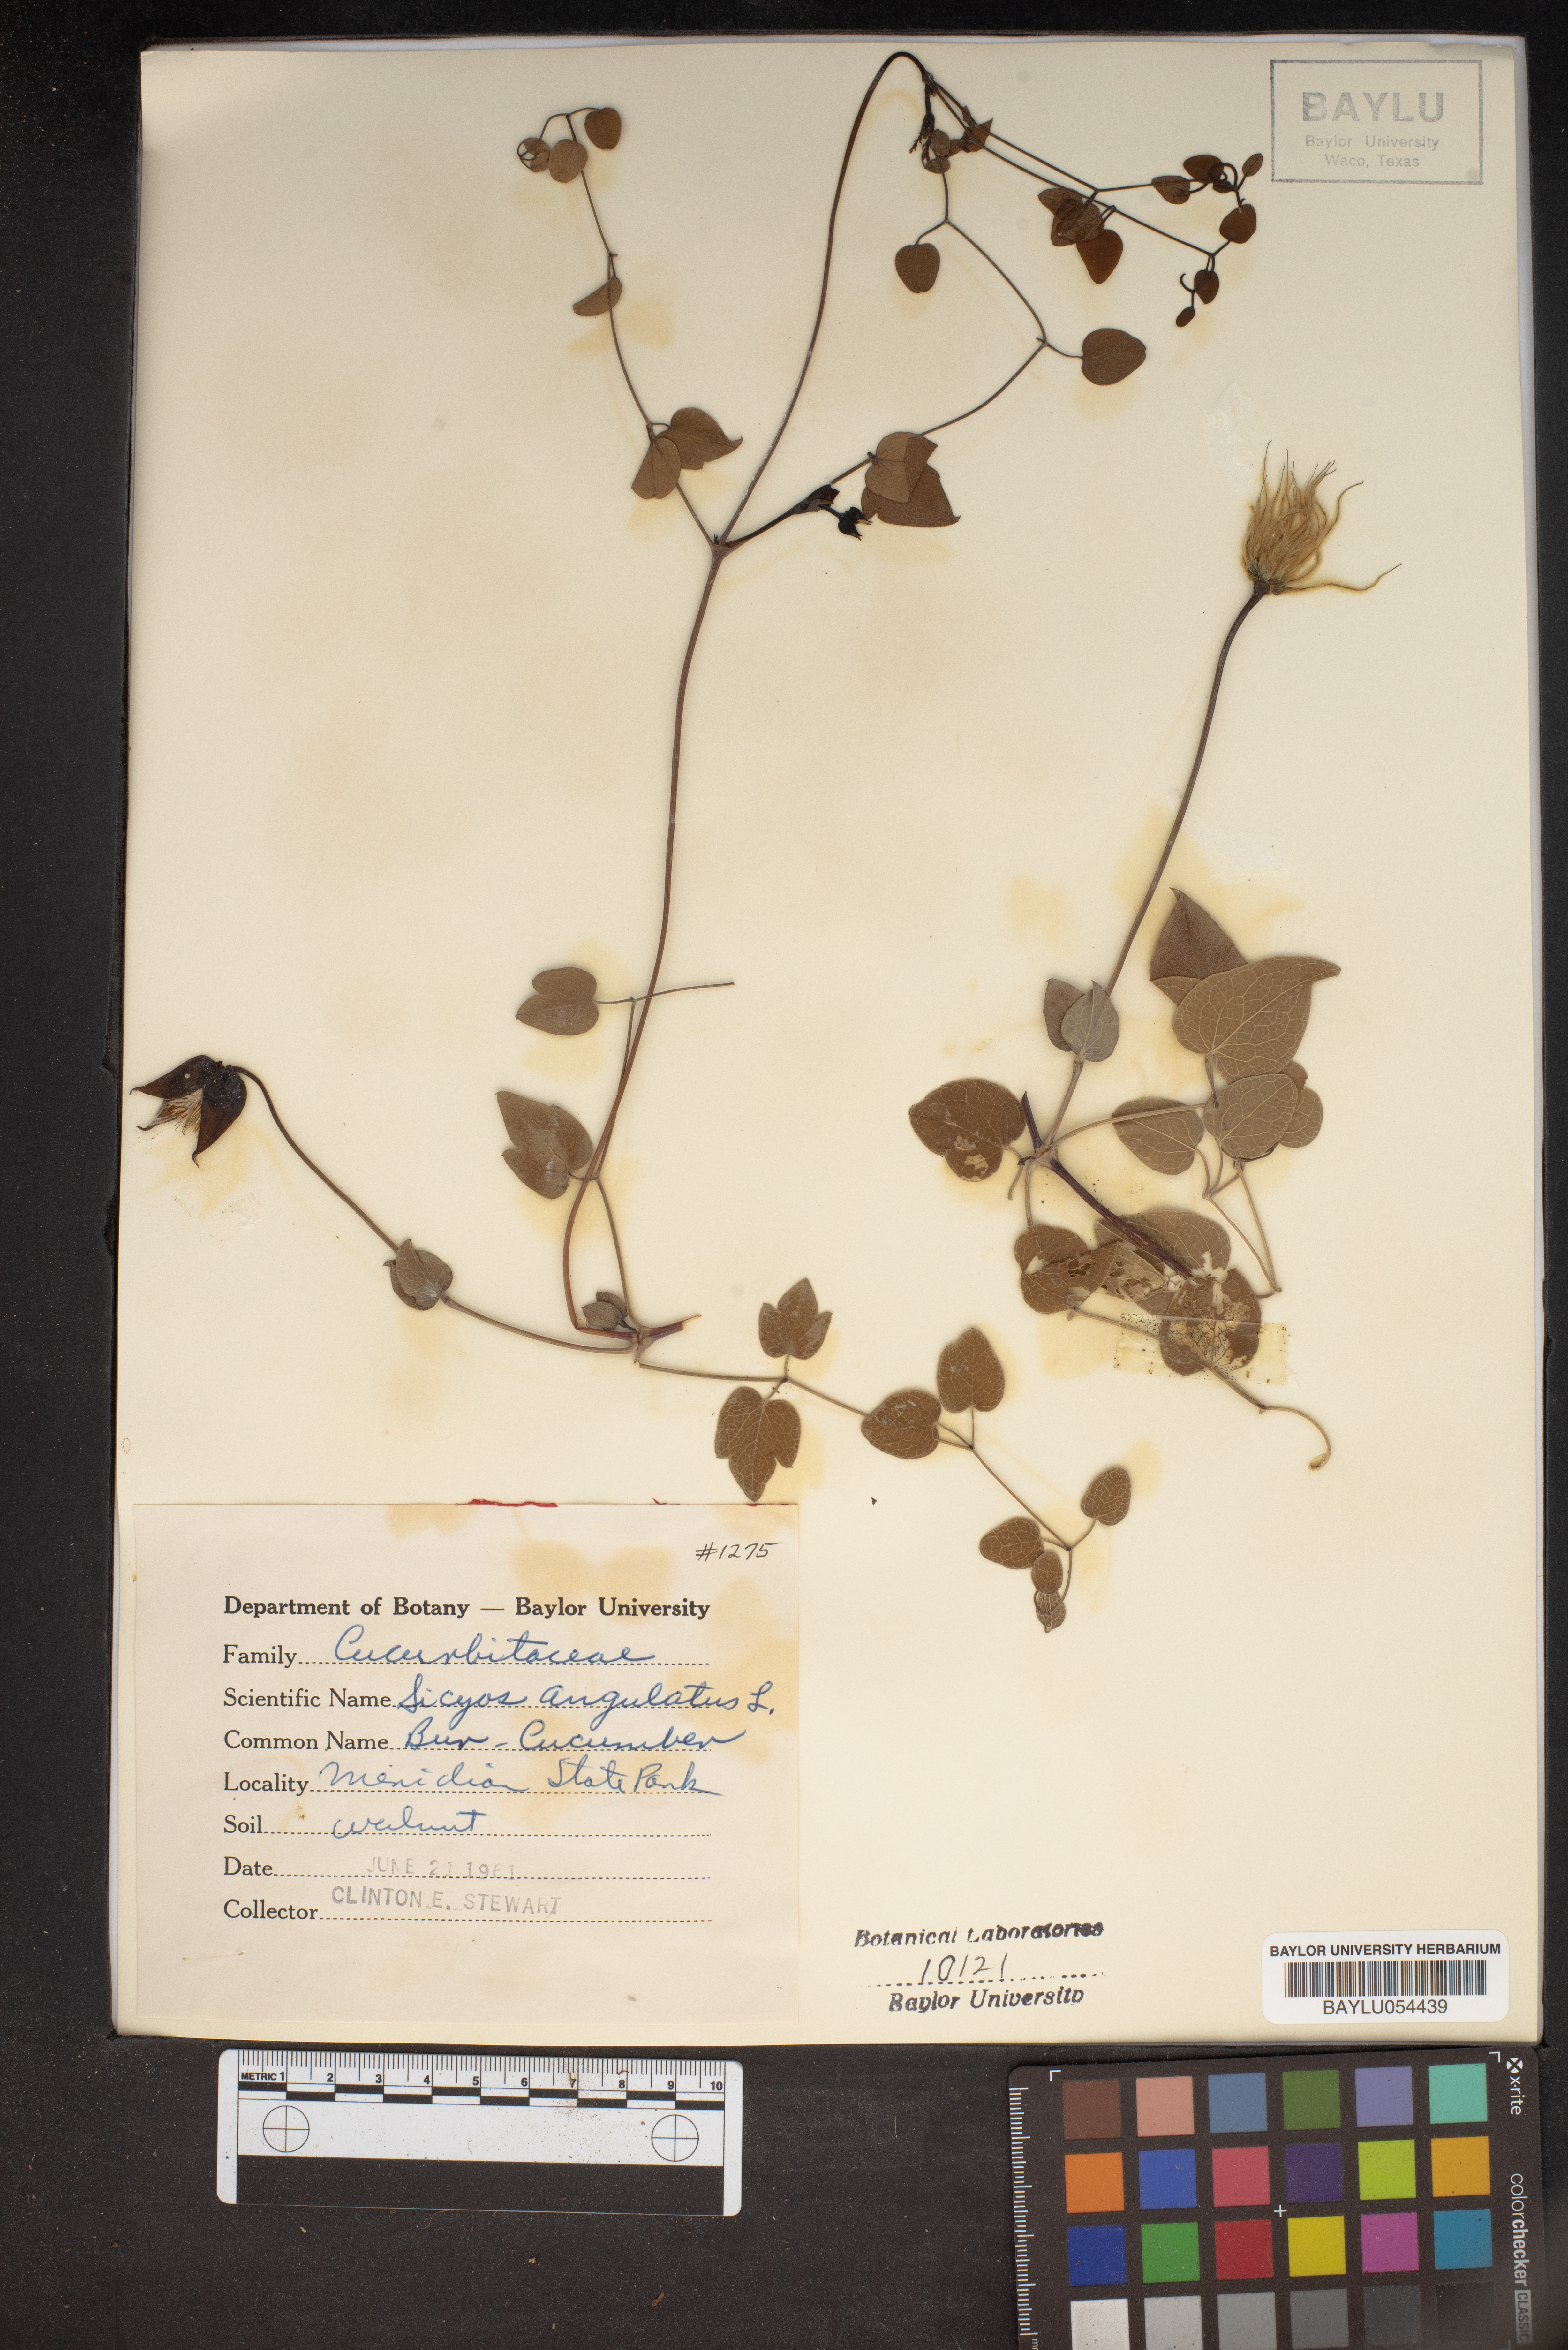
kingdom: Plantae
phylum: Tracheophyta
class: Magnoliopsida
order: Cucurbitales
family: Cucurbitaceae
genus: Sicyos
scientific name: Sicyos angulatus
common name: Angled burr cucumber
